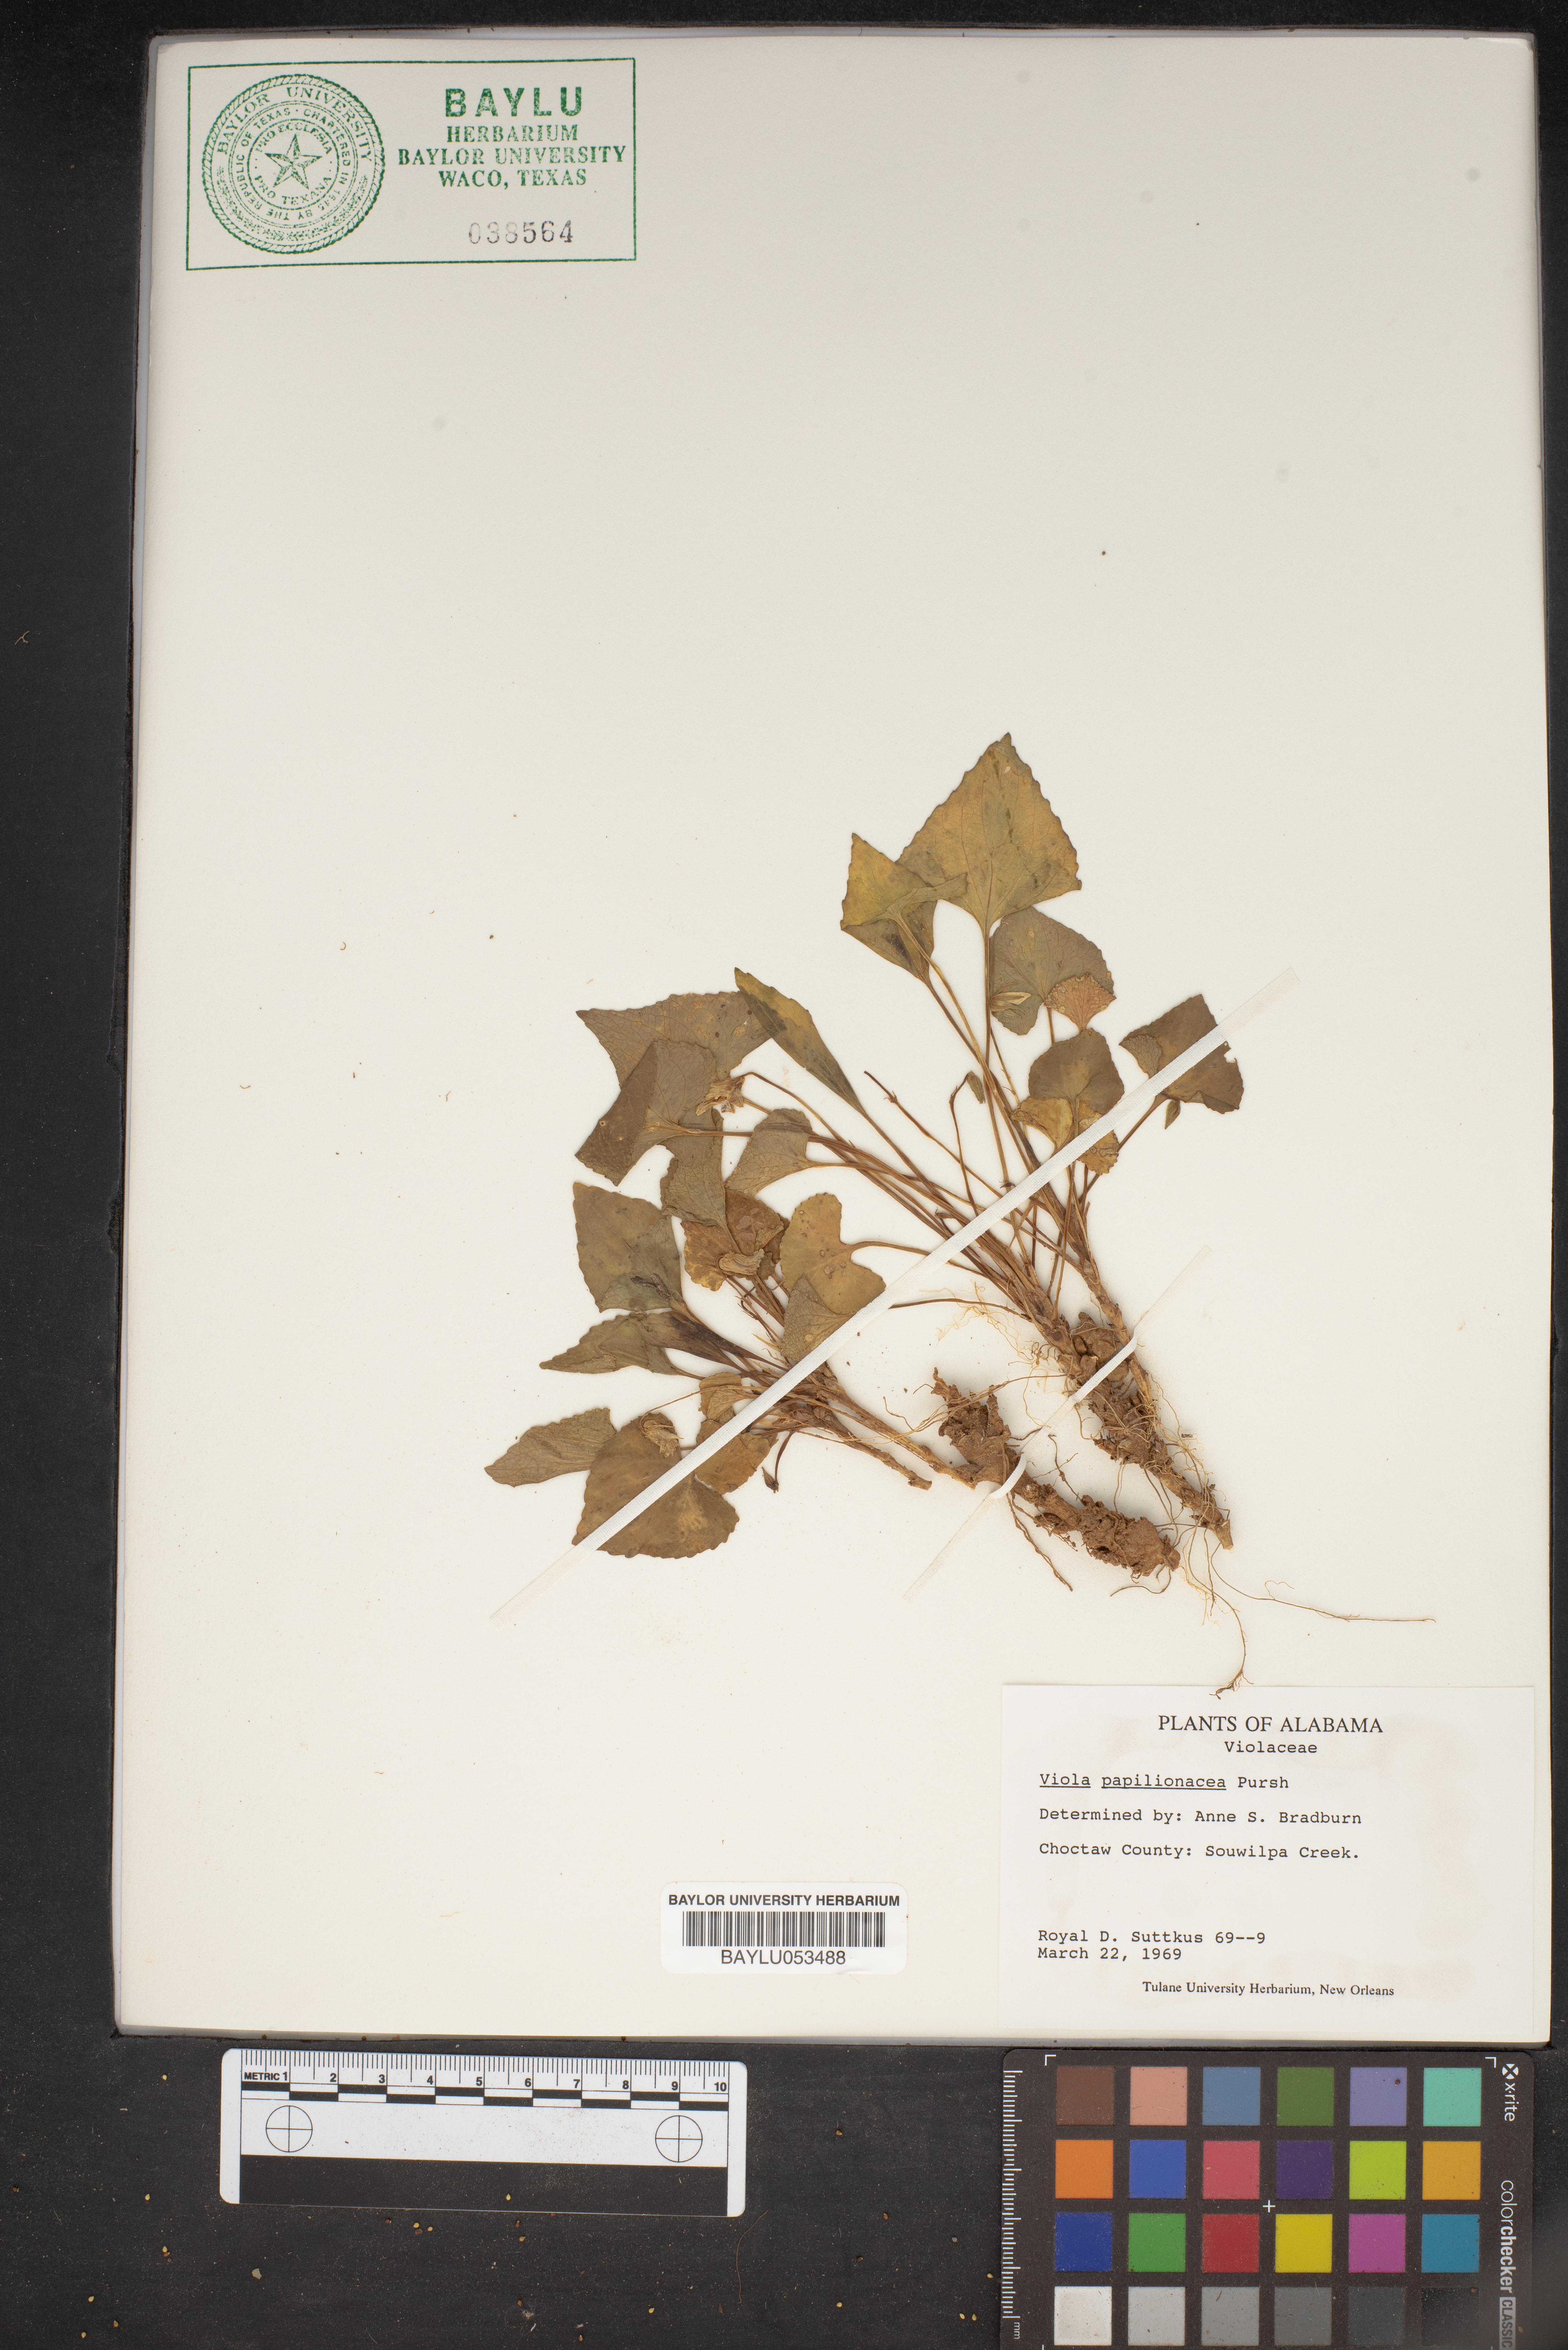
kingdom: Plantae
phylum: Tracheophyta
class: Magnoliopsida
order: Malpighiales
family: Violaceae
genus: Viola
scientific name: Viola sororia
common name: Dooryard violet
